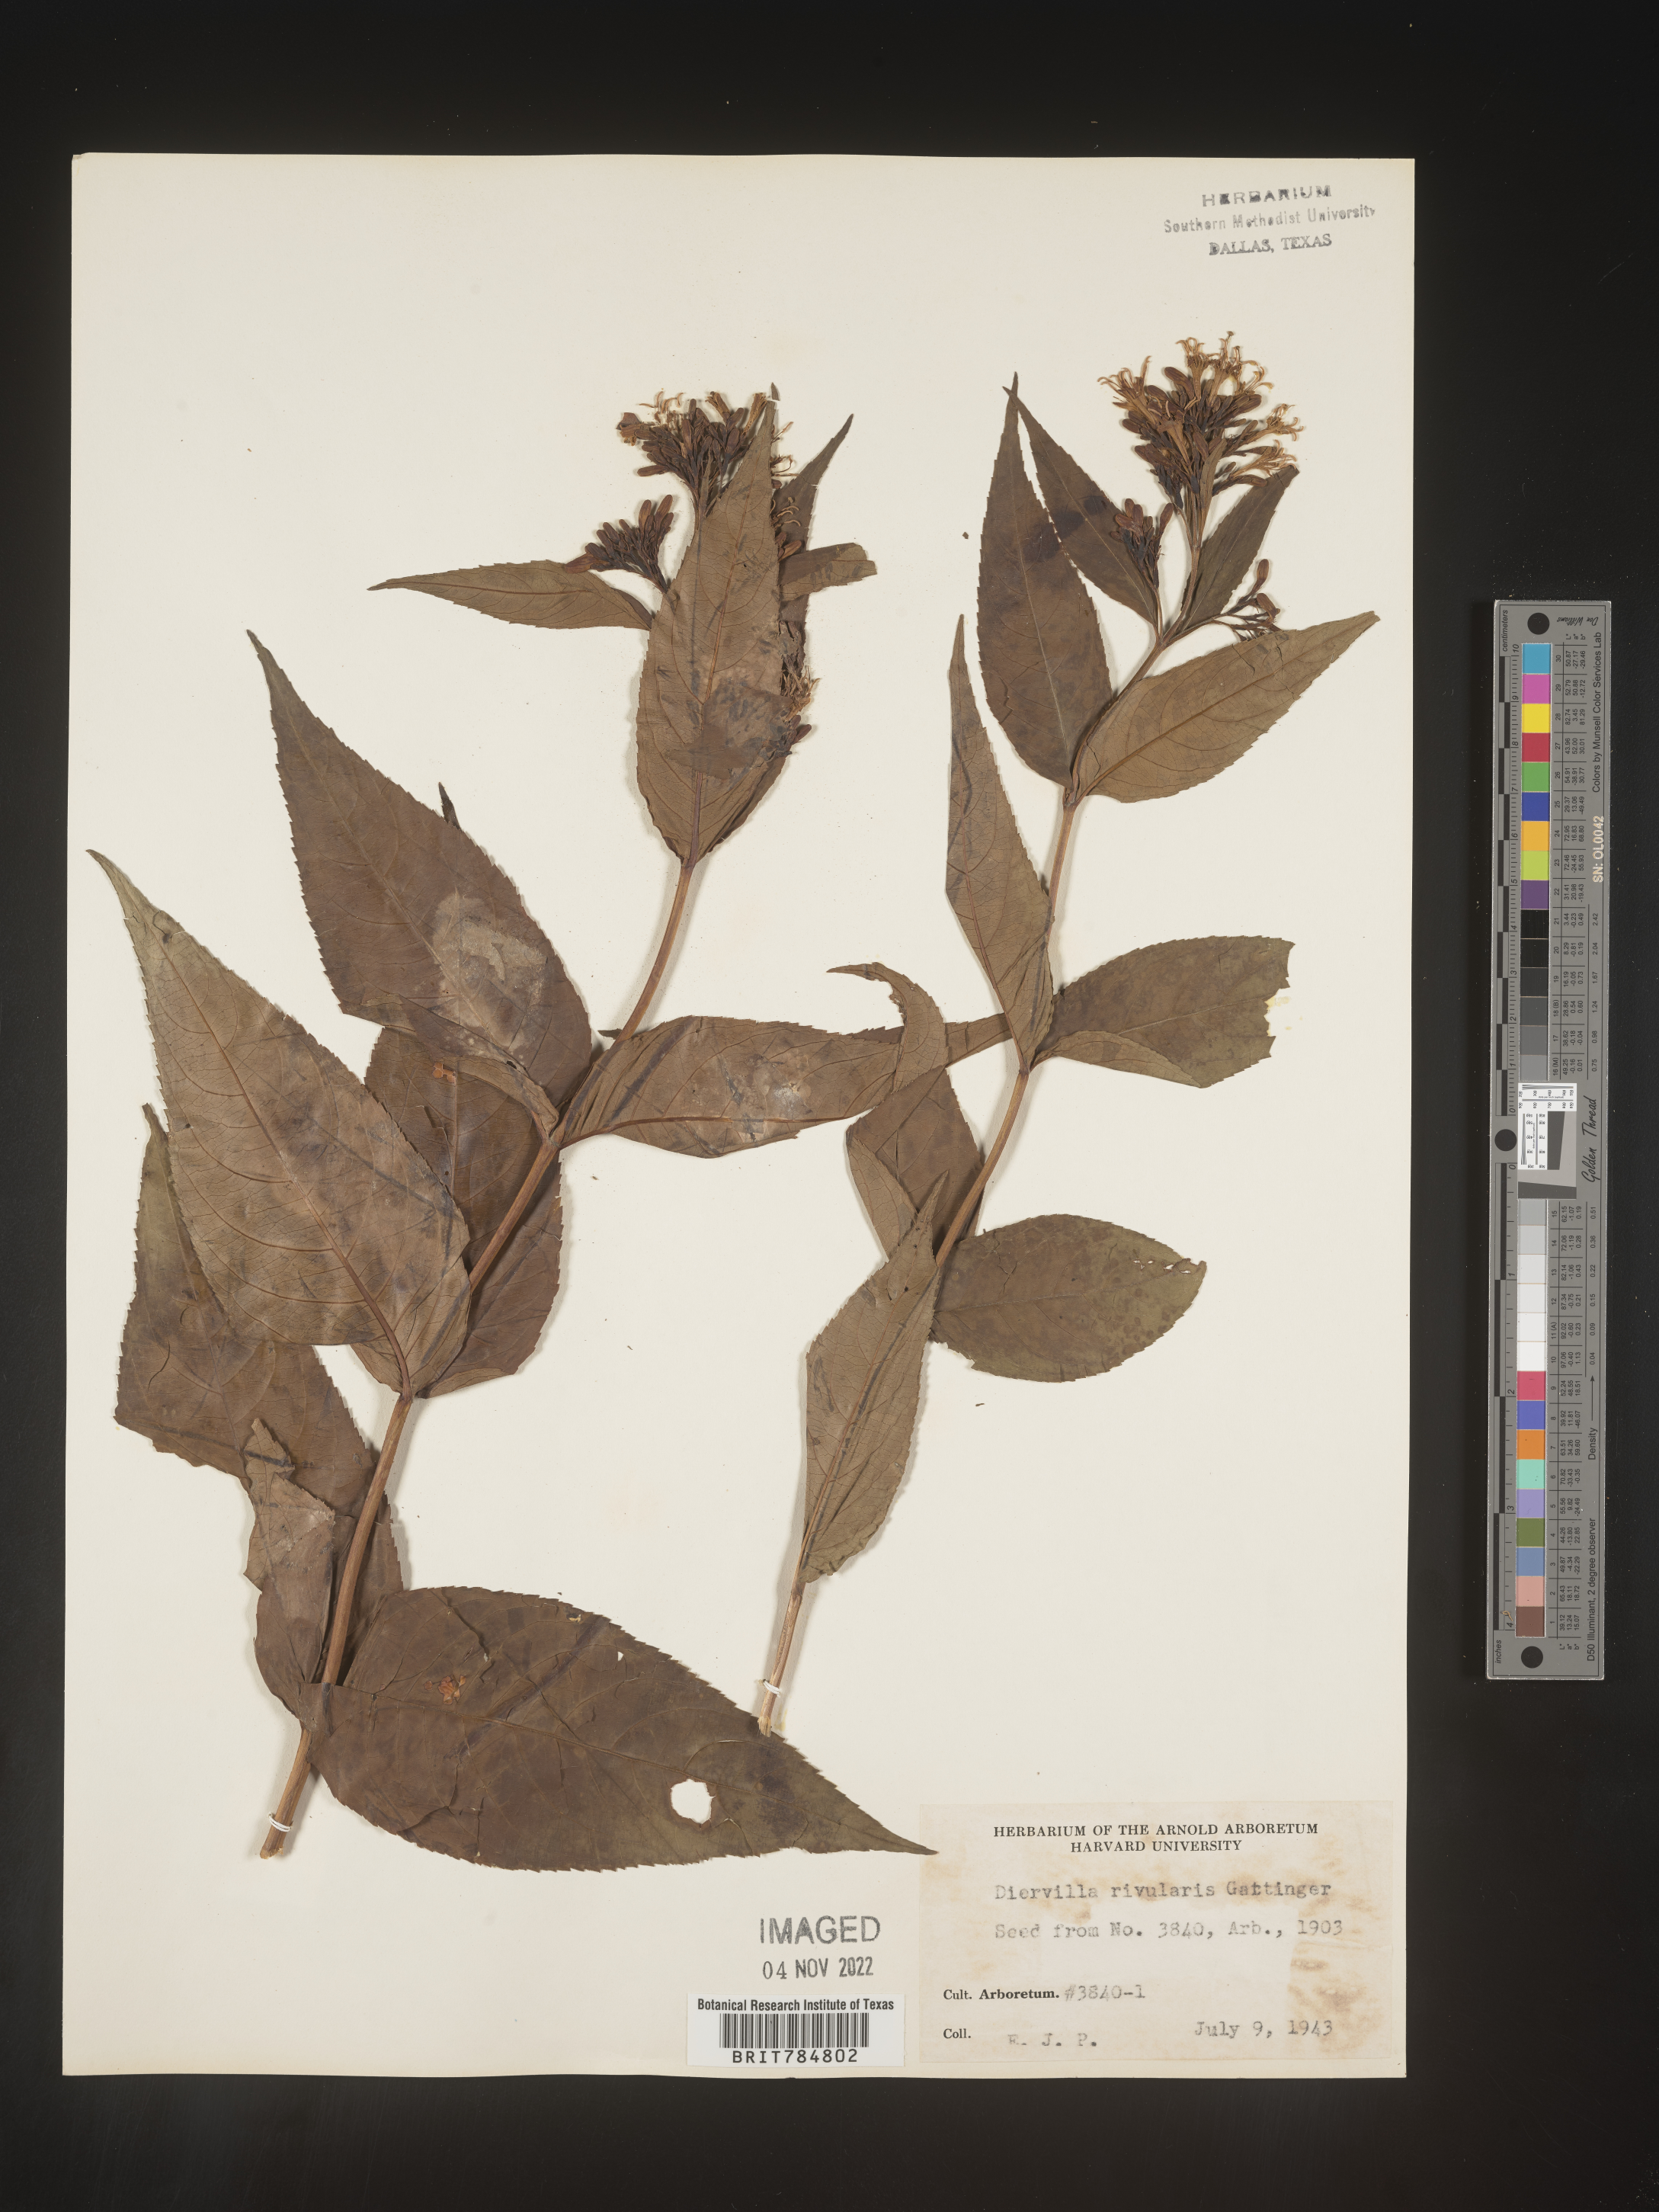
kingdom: Plantae
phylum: Tracheophyta
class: Magnoliopsida
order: Dipsacales
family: Caprifoliaceae
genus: Diervilla
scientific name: Diervilla
